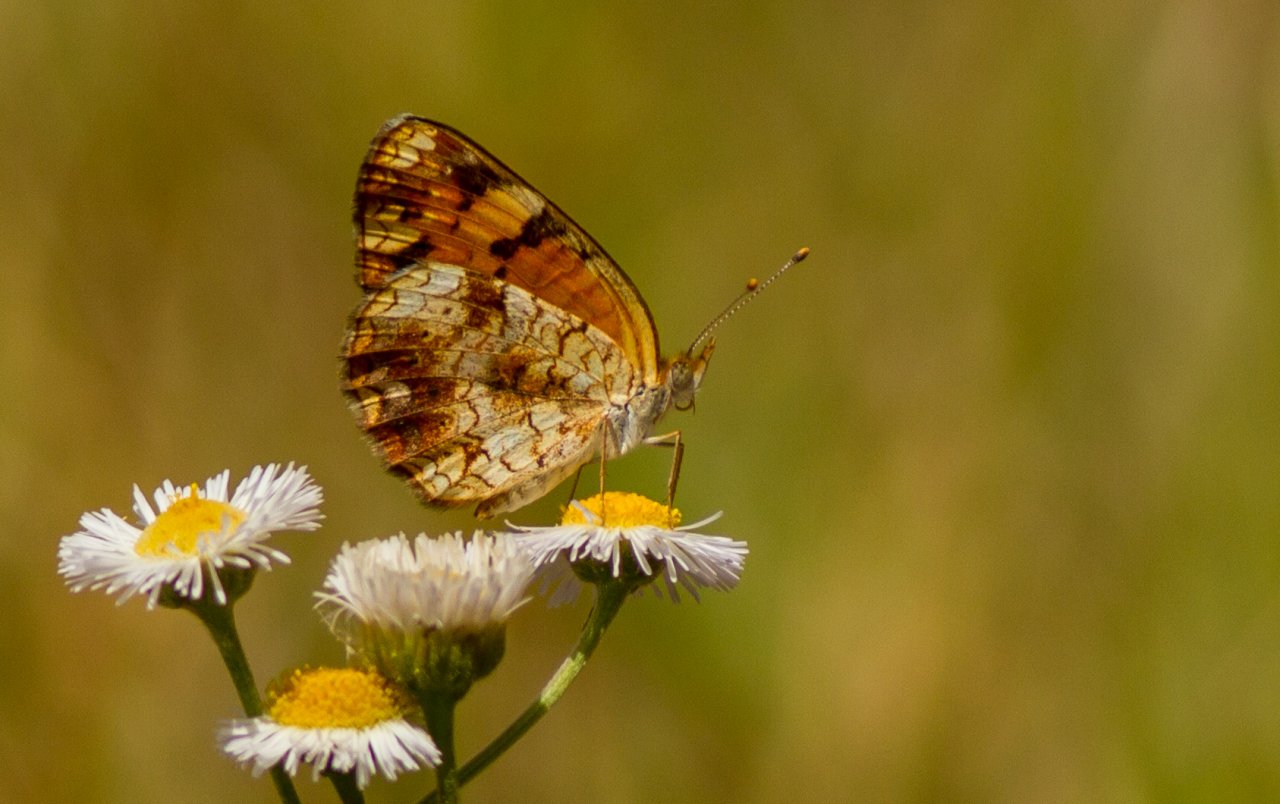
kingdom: Animalia
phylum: Arthropoda
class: Insecta
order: Lepidoptera
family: Nymphalidae
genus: Phyciodes
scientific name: Phyciodes tharos
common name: Pearl Crescent
